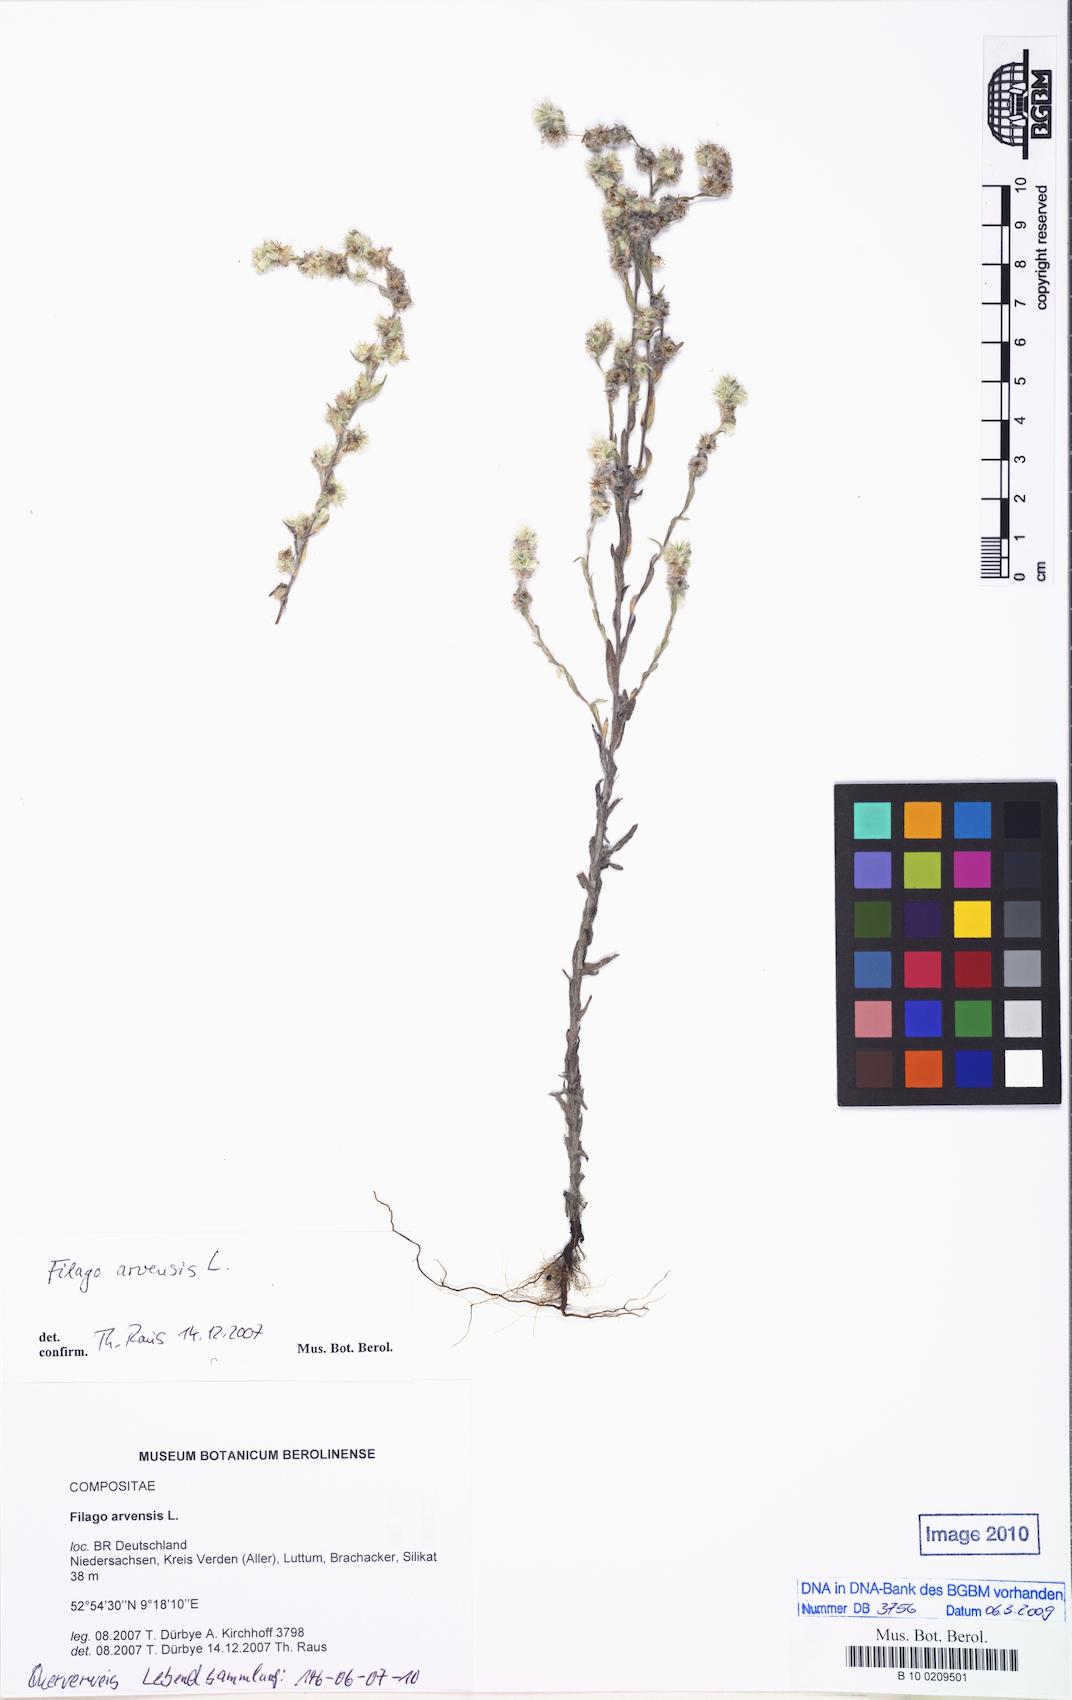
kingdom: Plantae
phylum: Tracheophyta
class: Magnoliopsida
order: Asterales
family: Asteraceae
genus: Filago
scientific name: Filago arvensis
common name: Field cudweed
